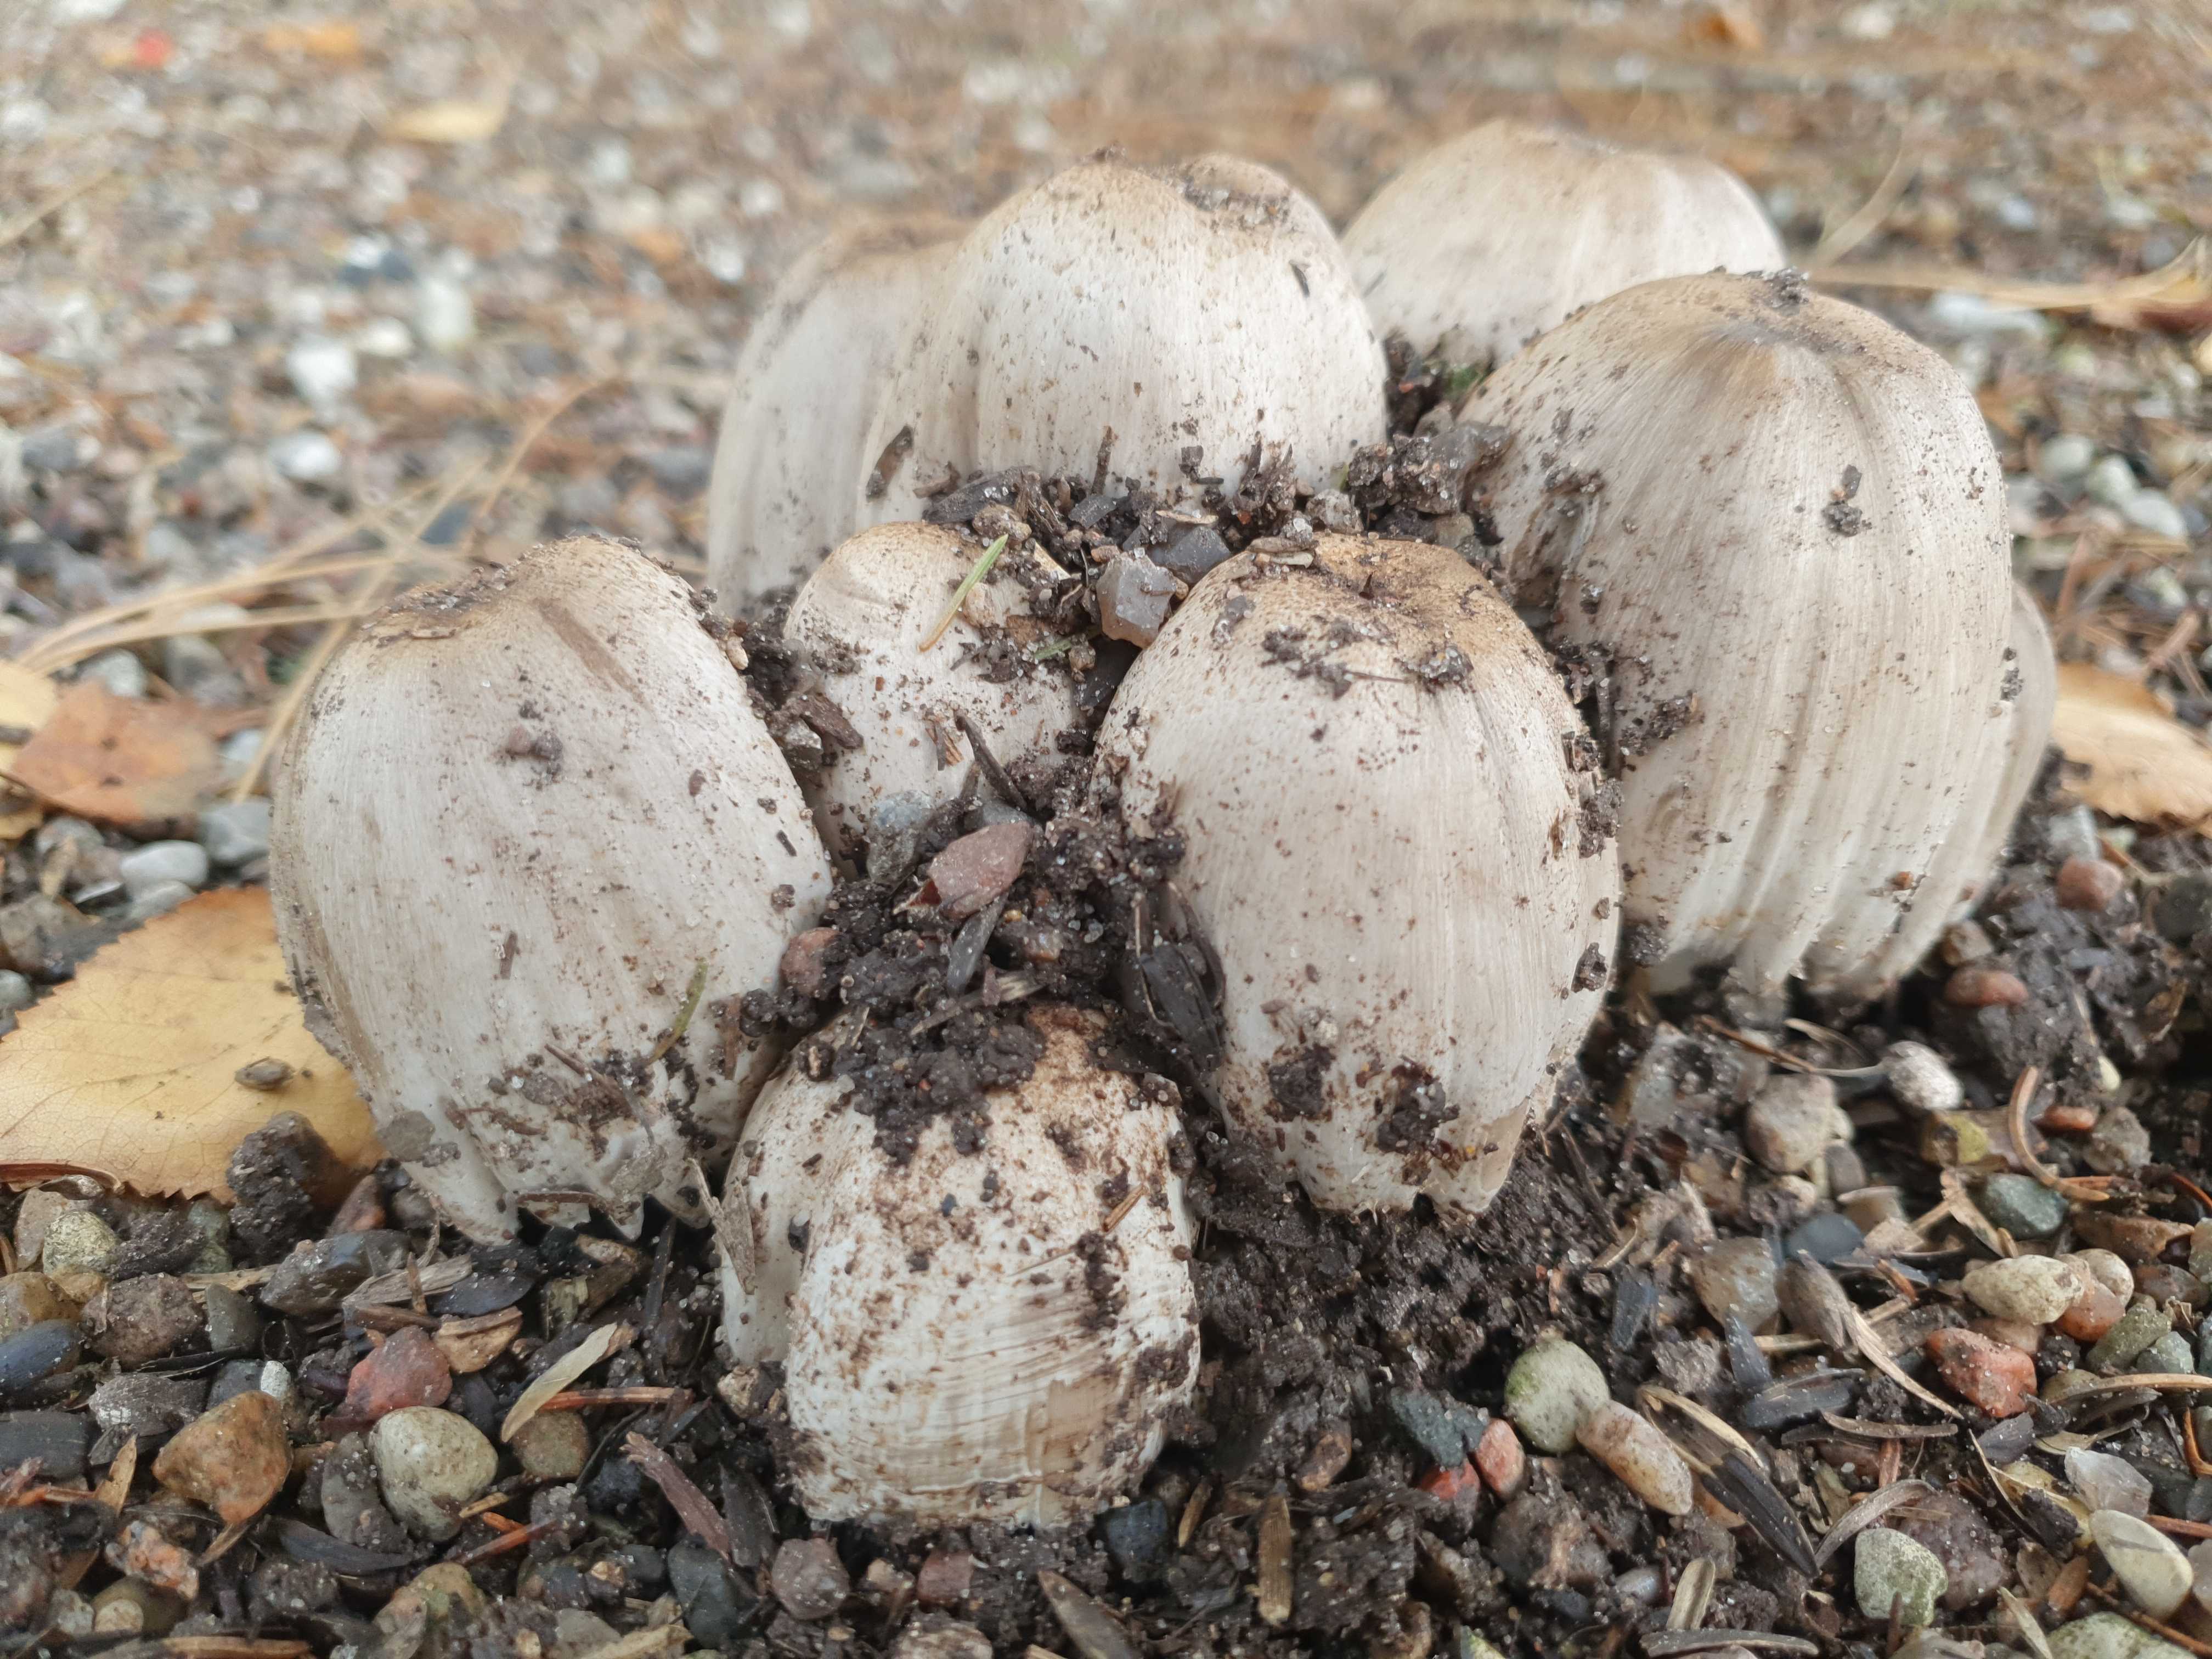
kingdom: Fungi
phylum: Basidiomycota
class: Agaricomycetes
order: Agaricales
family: Psathyrellaceae
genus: Coprinopsis
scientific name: Coprinopsis atramentaria
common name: almindelig blækhat
